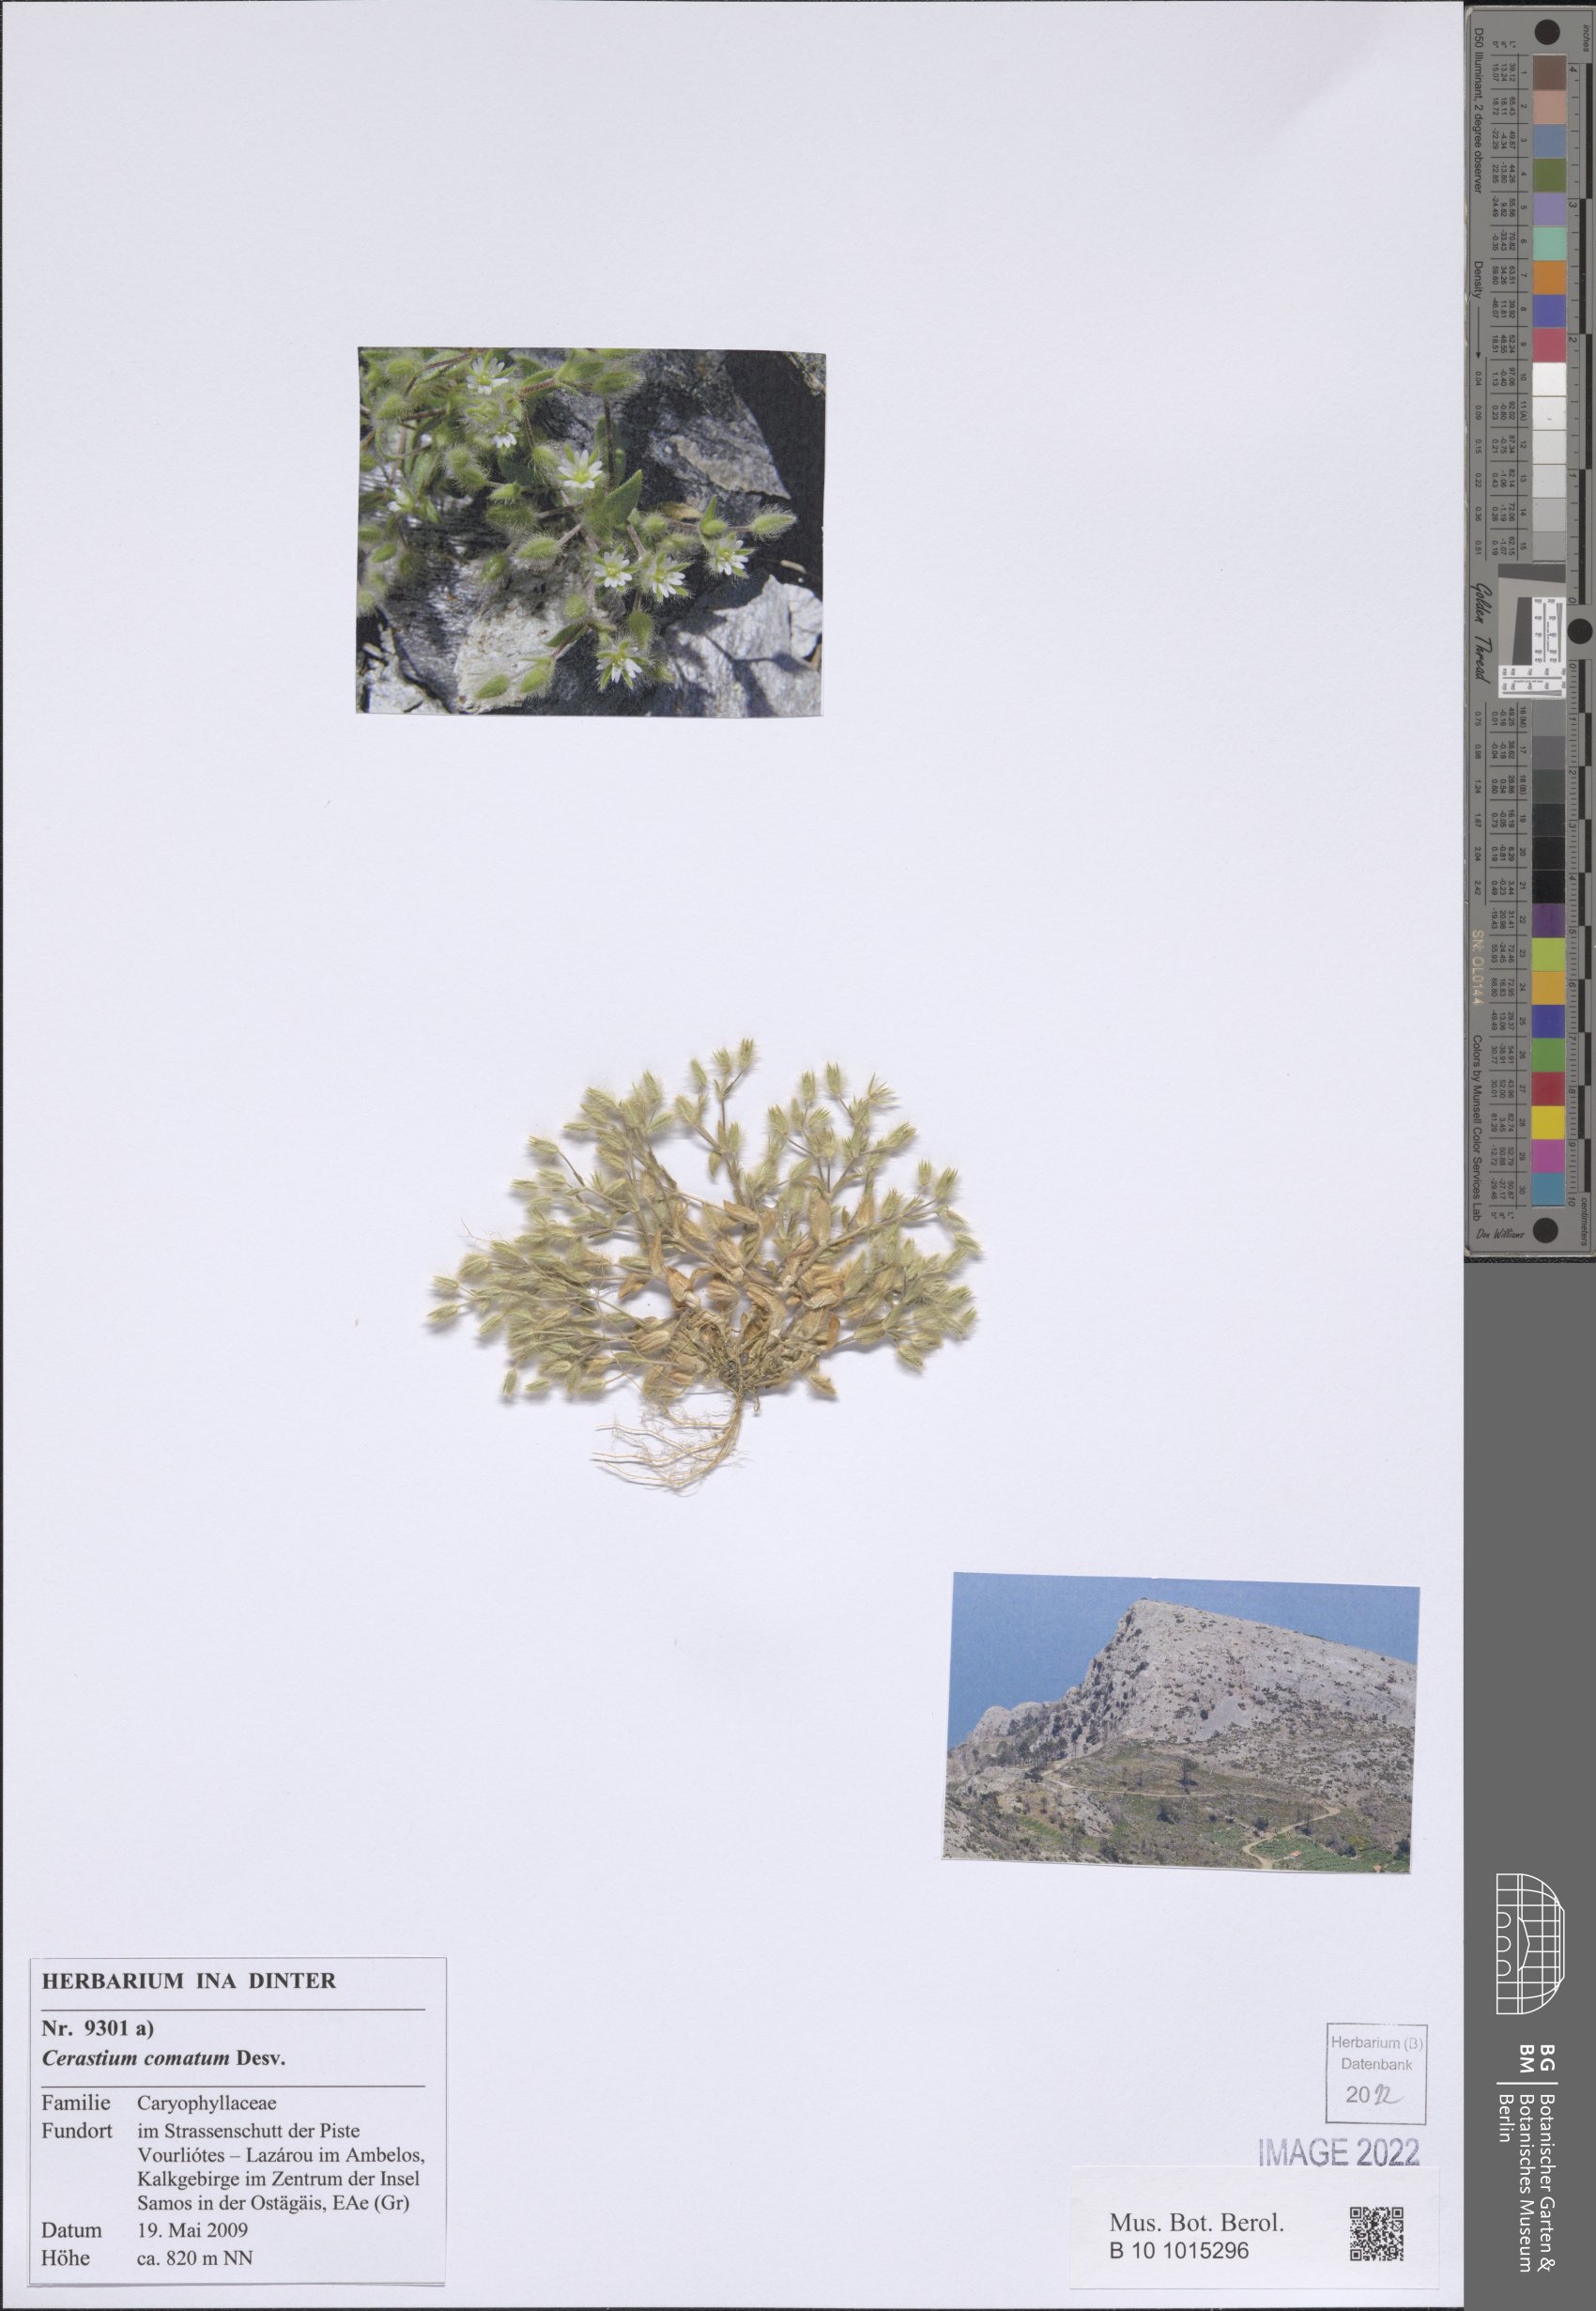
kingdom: Plantae
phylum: Tracheophyta
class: Magnoliopsida
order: Caryophyllales
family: Caryophyllaceae
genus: Cerastium
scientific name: Cerastium comatum
